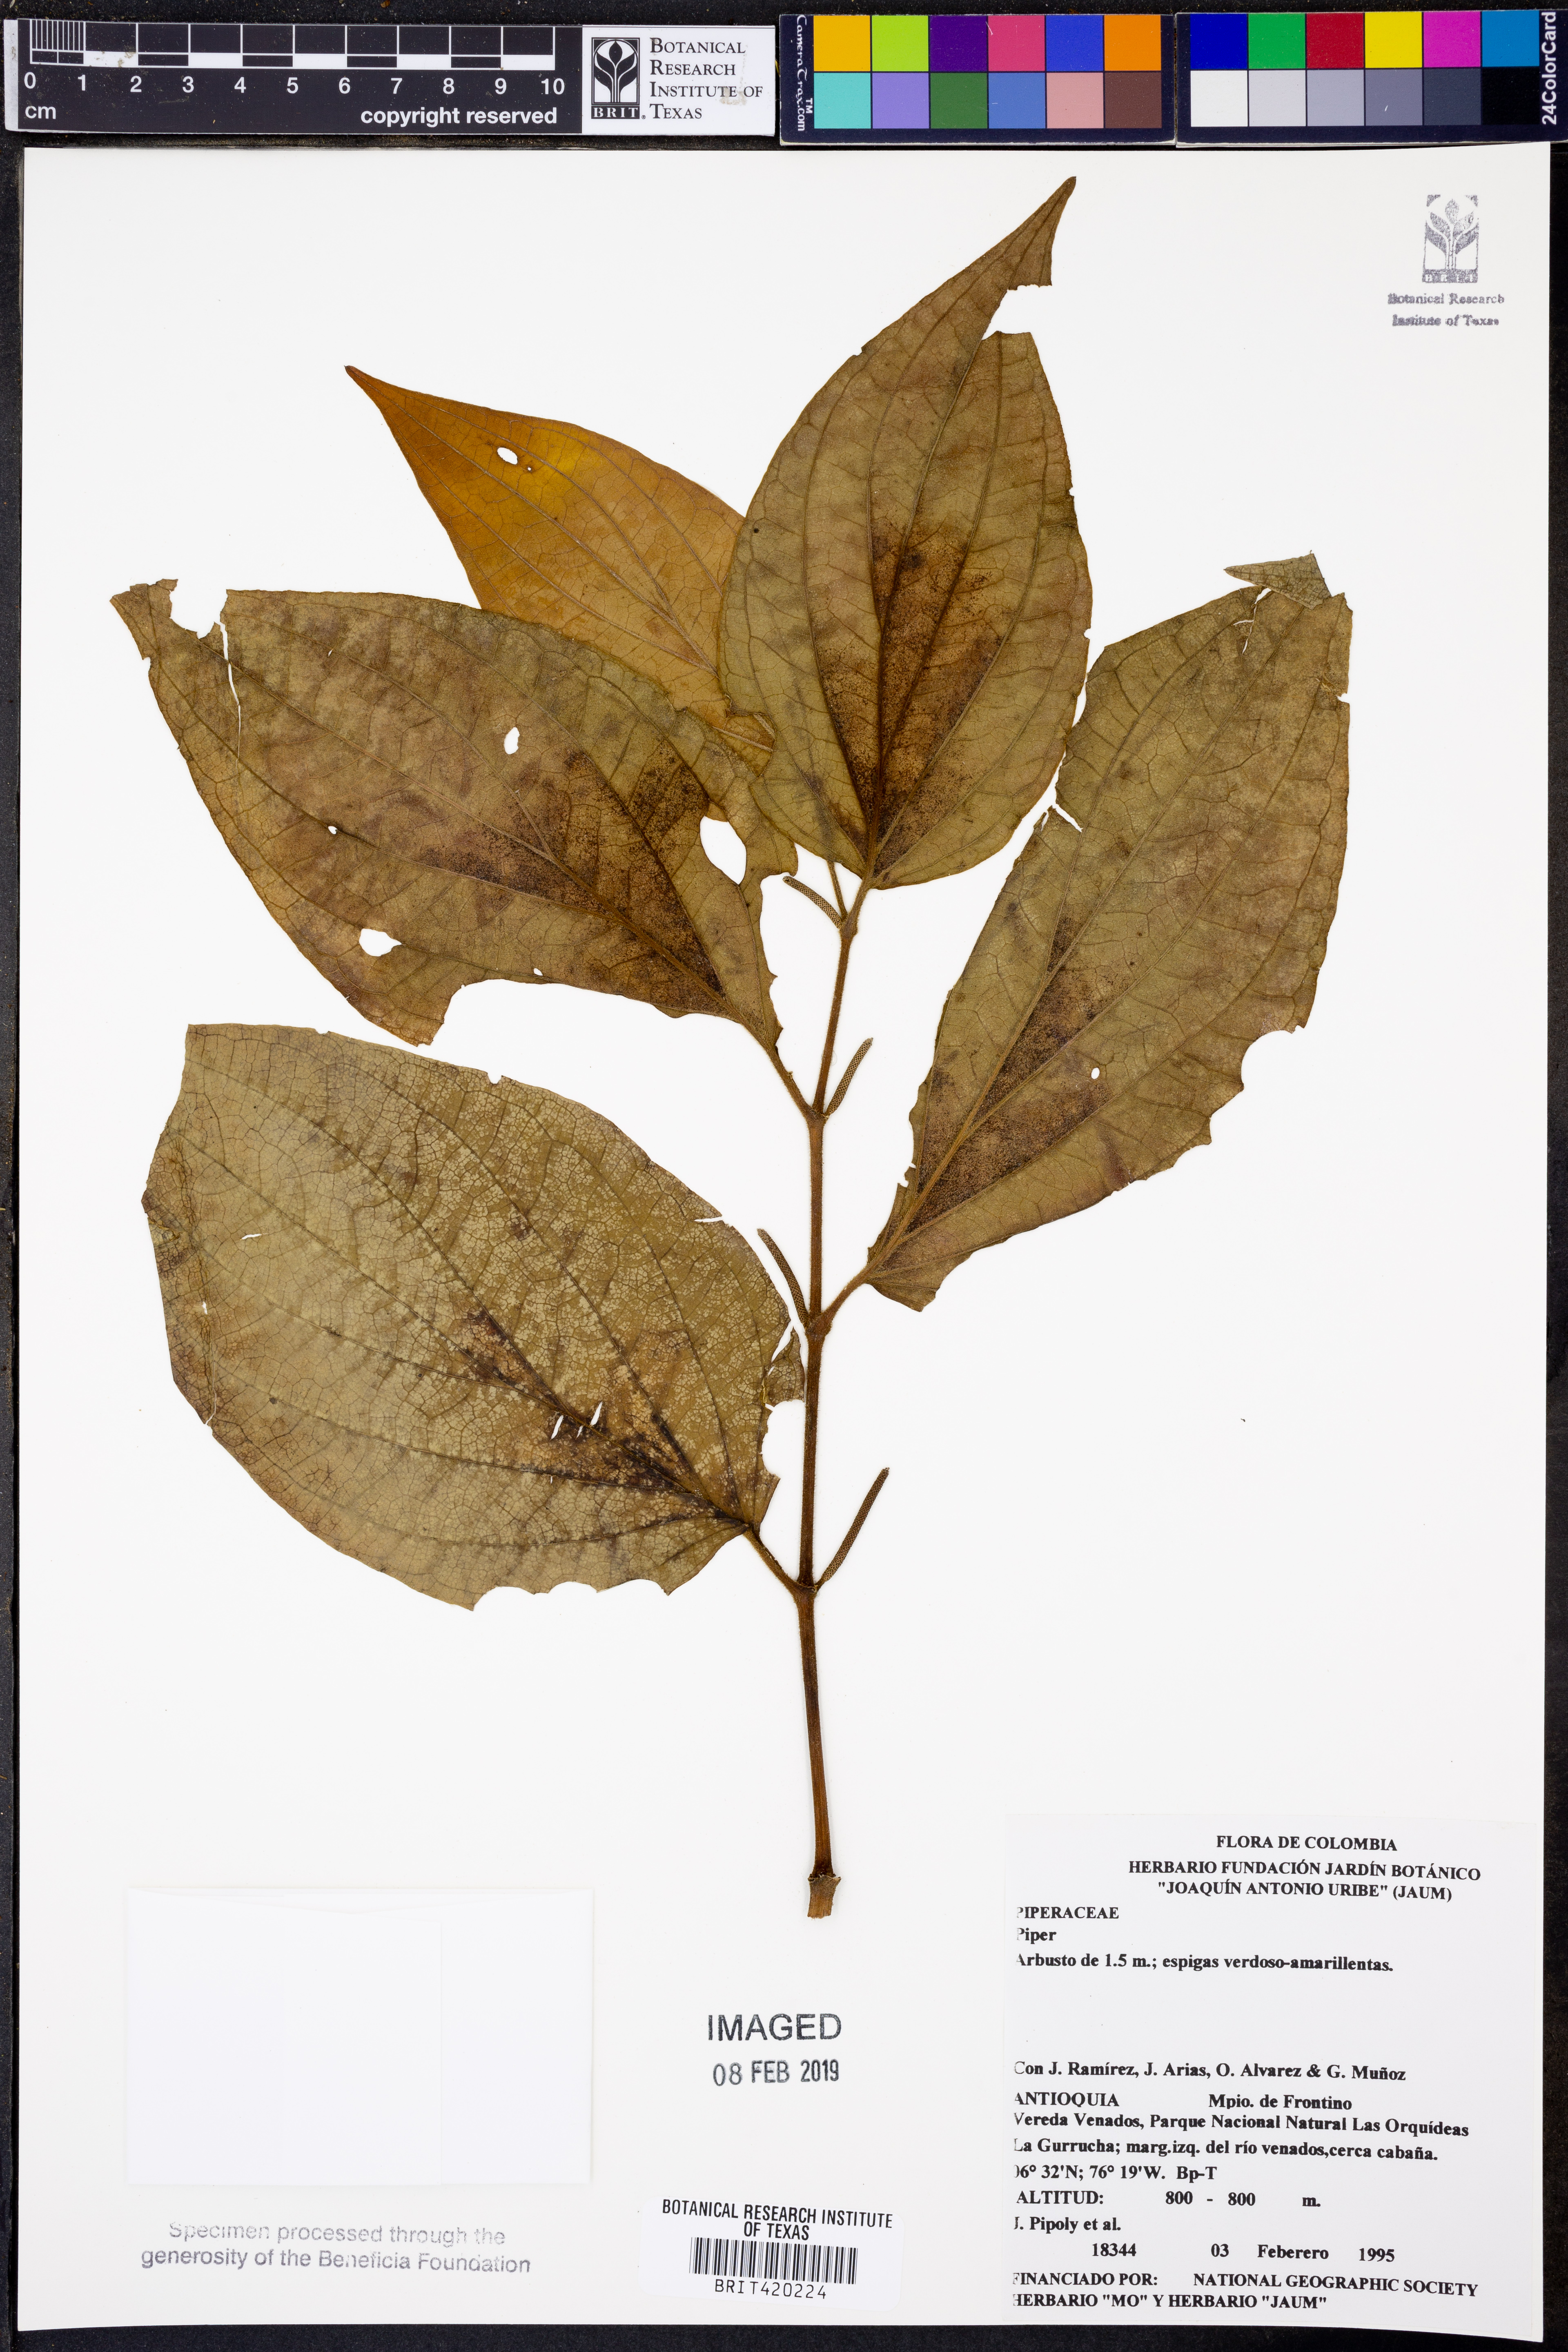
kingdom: Plantae
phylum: Tracheophyta
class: Magnoliopsida
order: Piperales
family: Piperaceae
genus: Piper
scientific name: Piper
